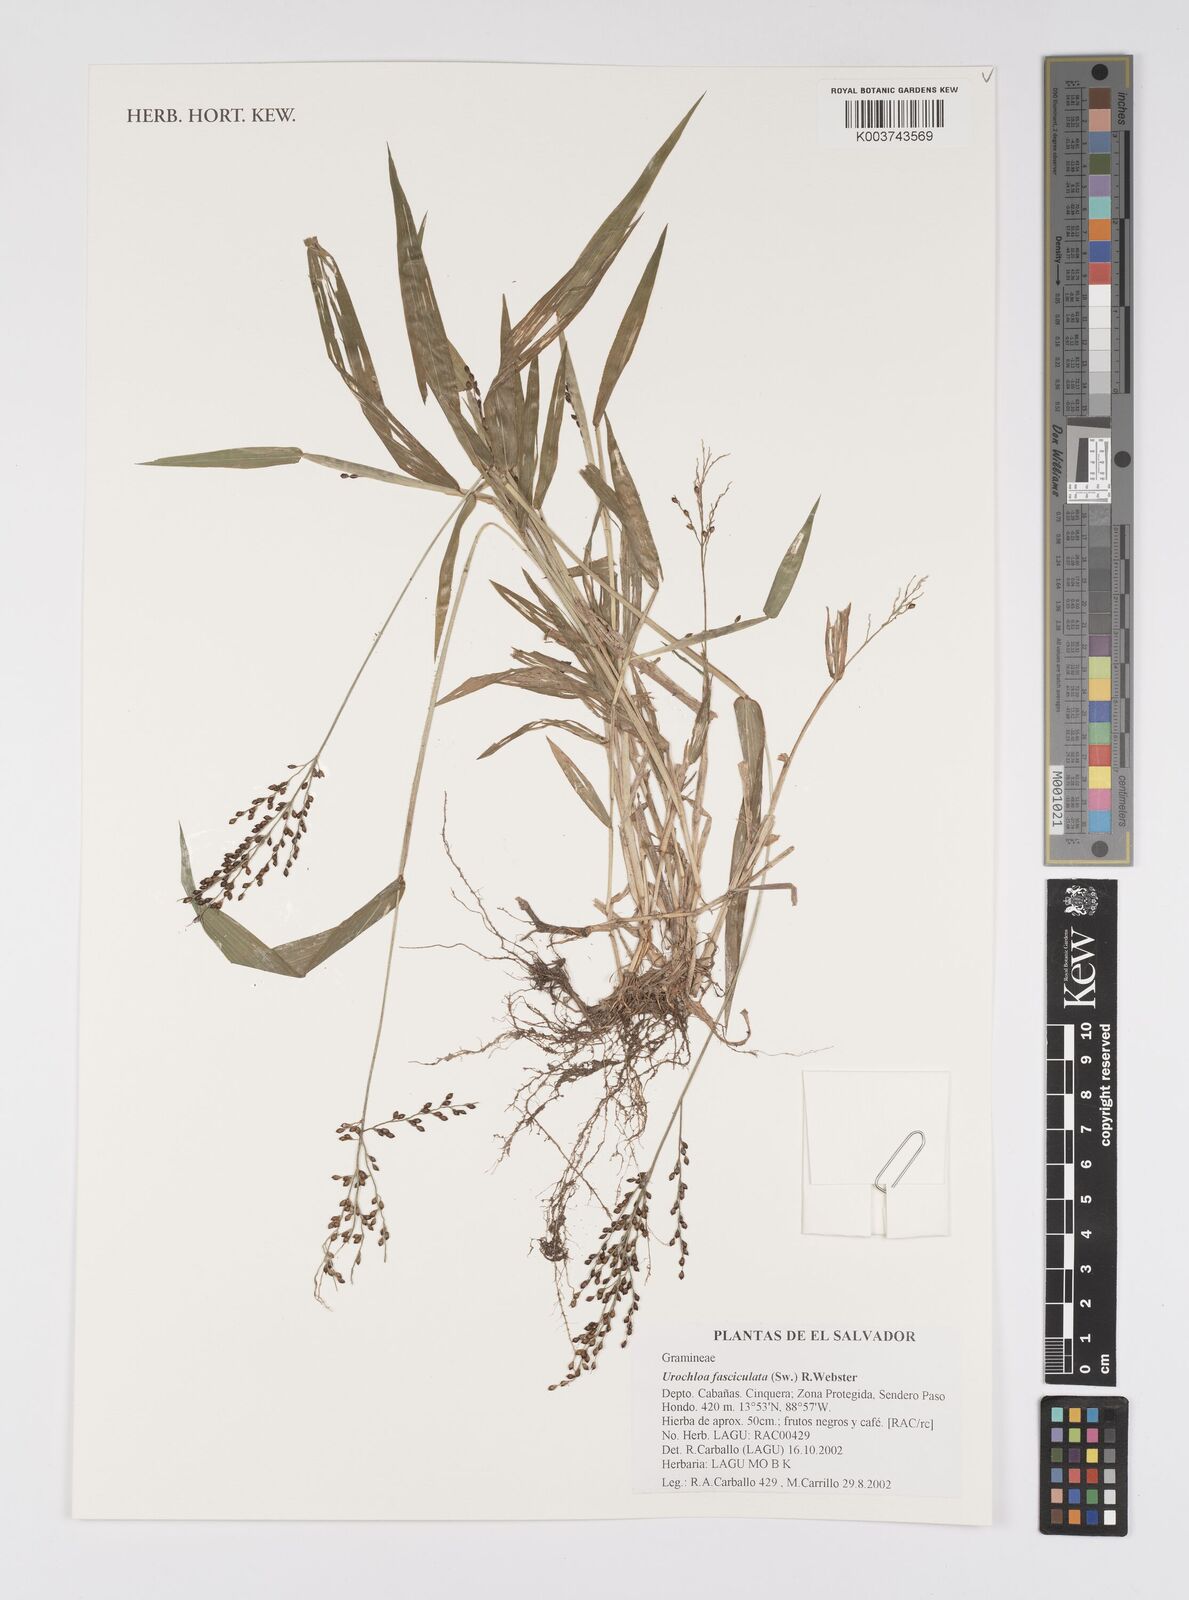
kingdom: Plantae
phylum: Tracheophyta
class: Liliopsida
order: Poales
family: Poaceae
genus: Urochloa
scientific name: Urochloa fusca
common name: Browntop signal grass
